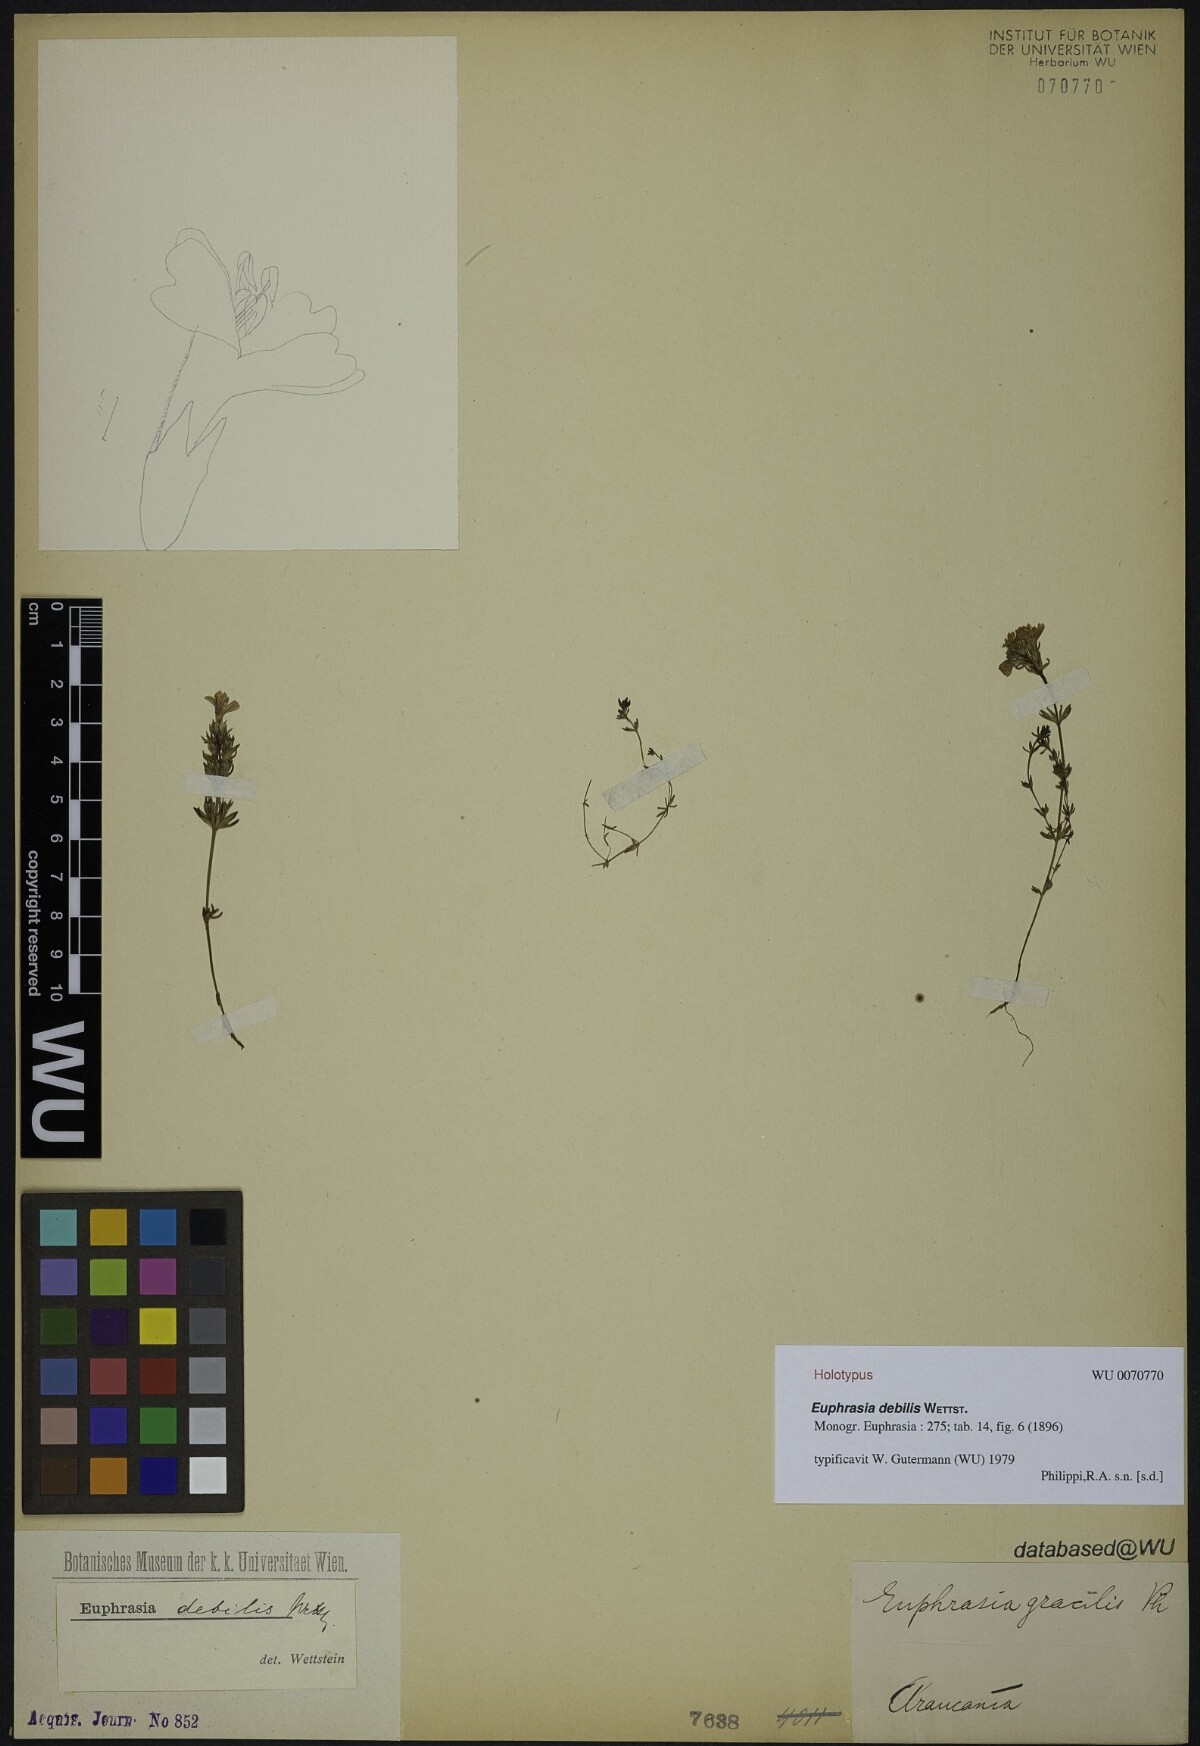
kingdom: Plantae
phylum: Tracheophyta
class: Magnoliopsida
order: Lamiales
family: Orobanchaceae
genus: Euphrasia
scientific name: Euphrasia trifida
